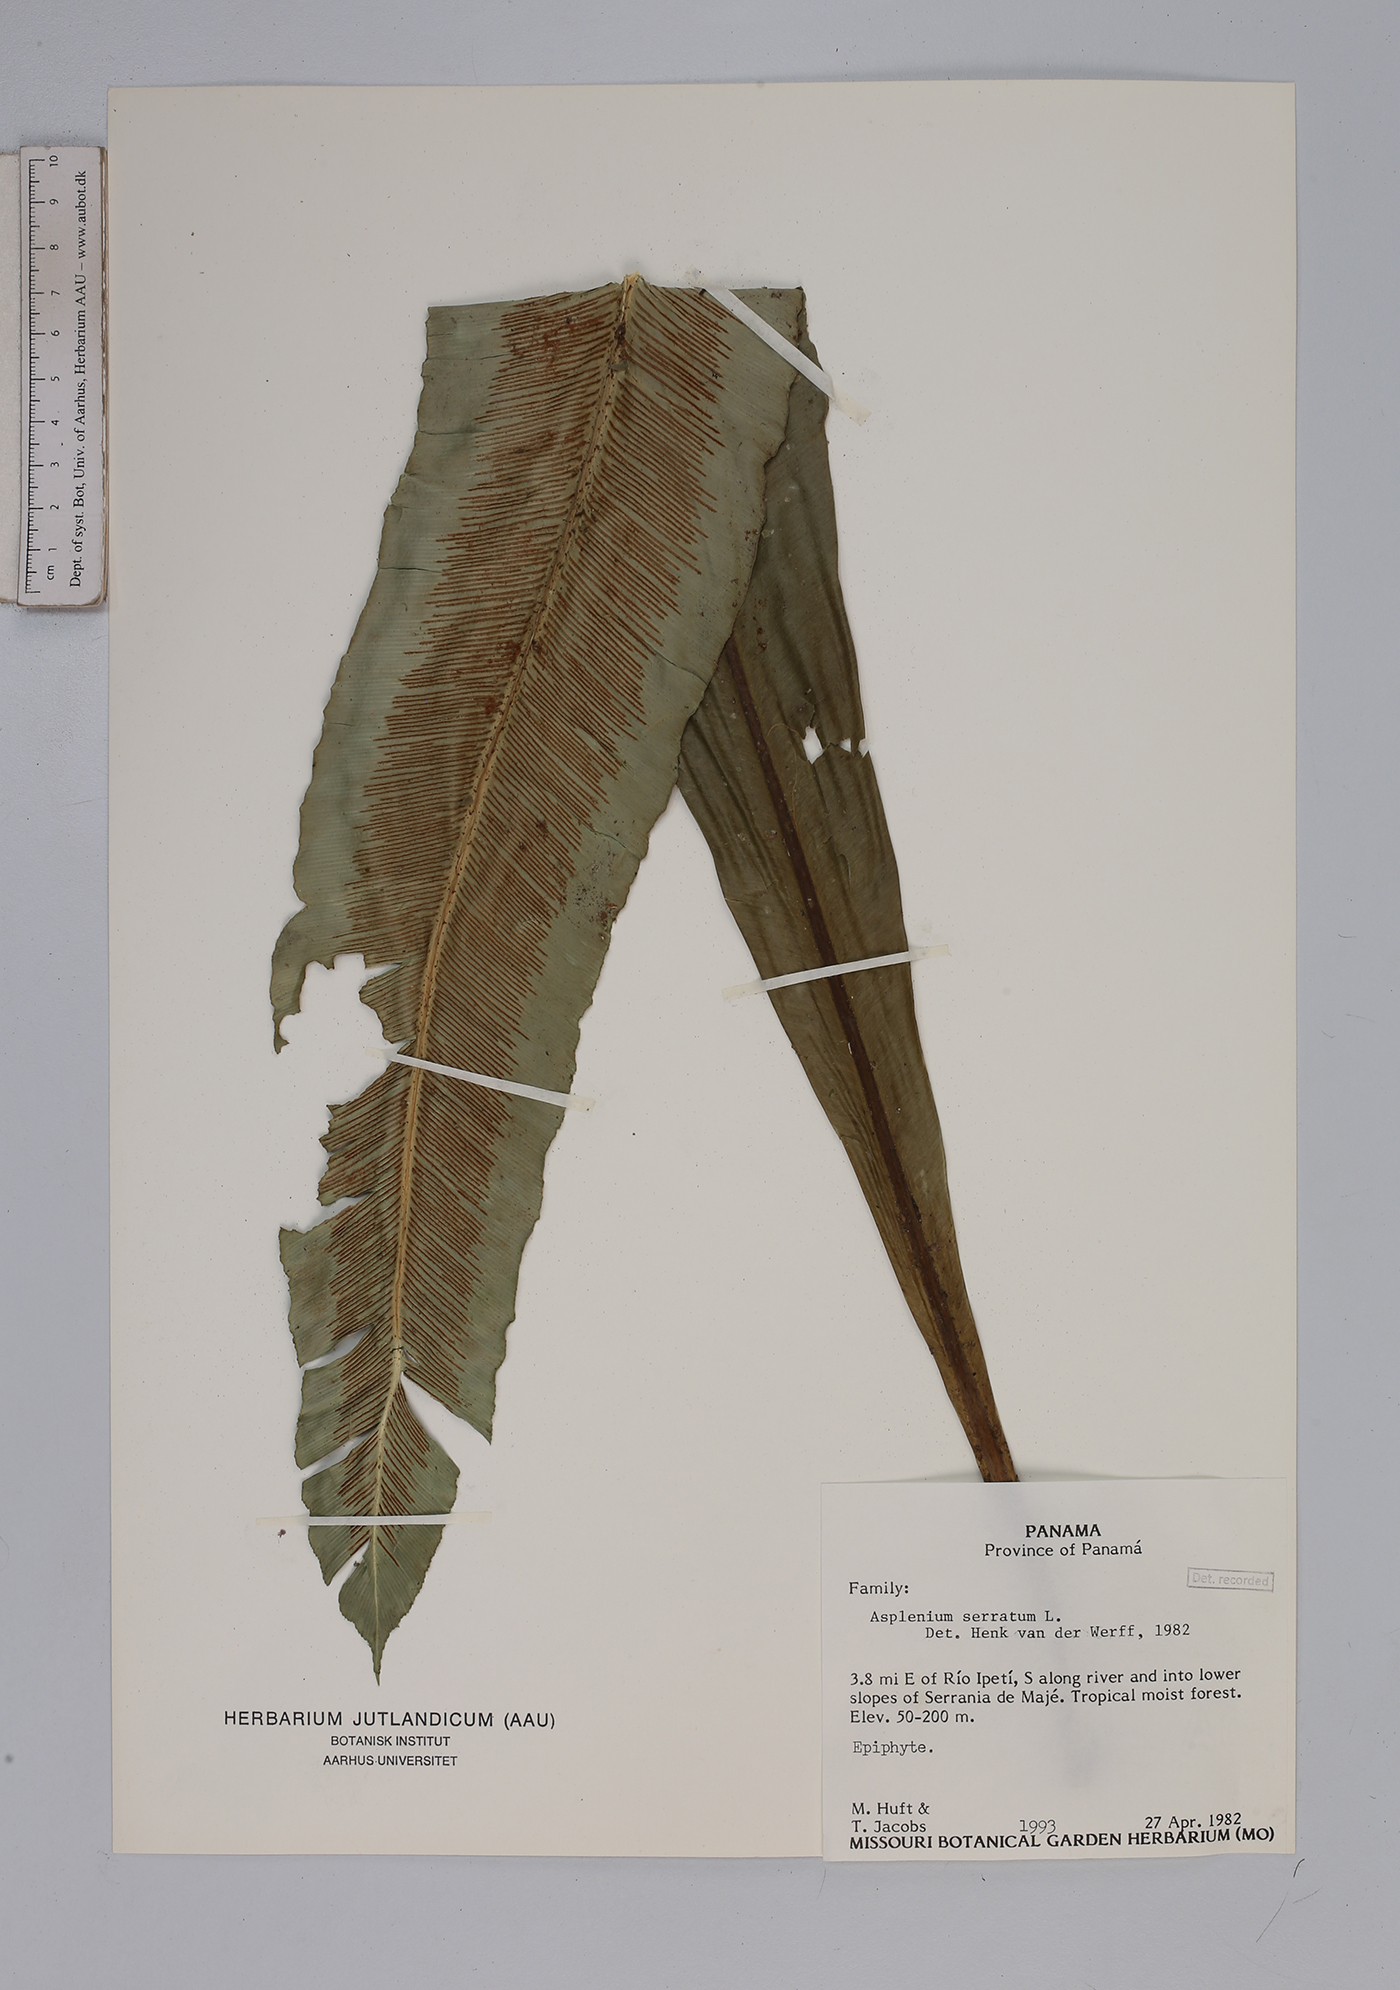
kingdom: Plantae
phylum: Tracheophyta
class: Polypodiopsida
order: Polypodiales
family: Aspleniaceae
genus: Asplenium
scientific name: Asplenium serratum
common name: Wild birdnest fern
